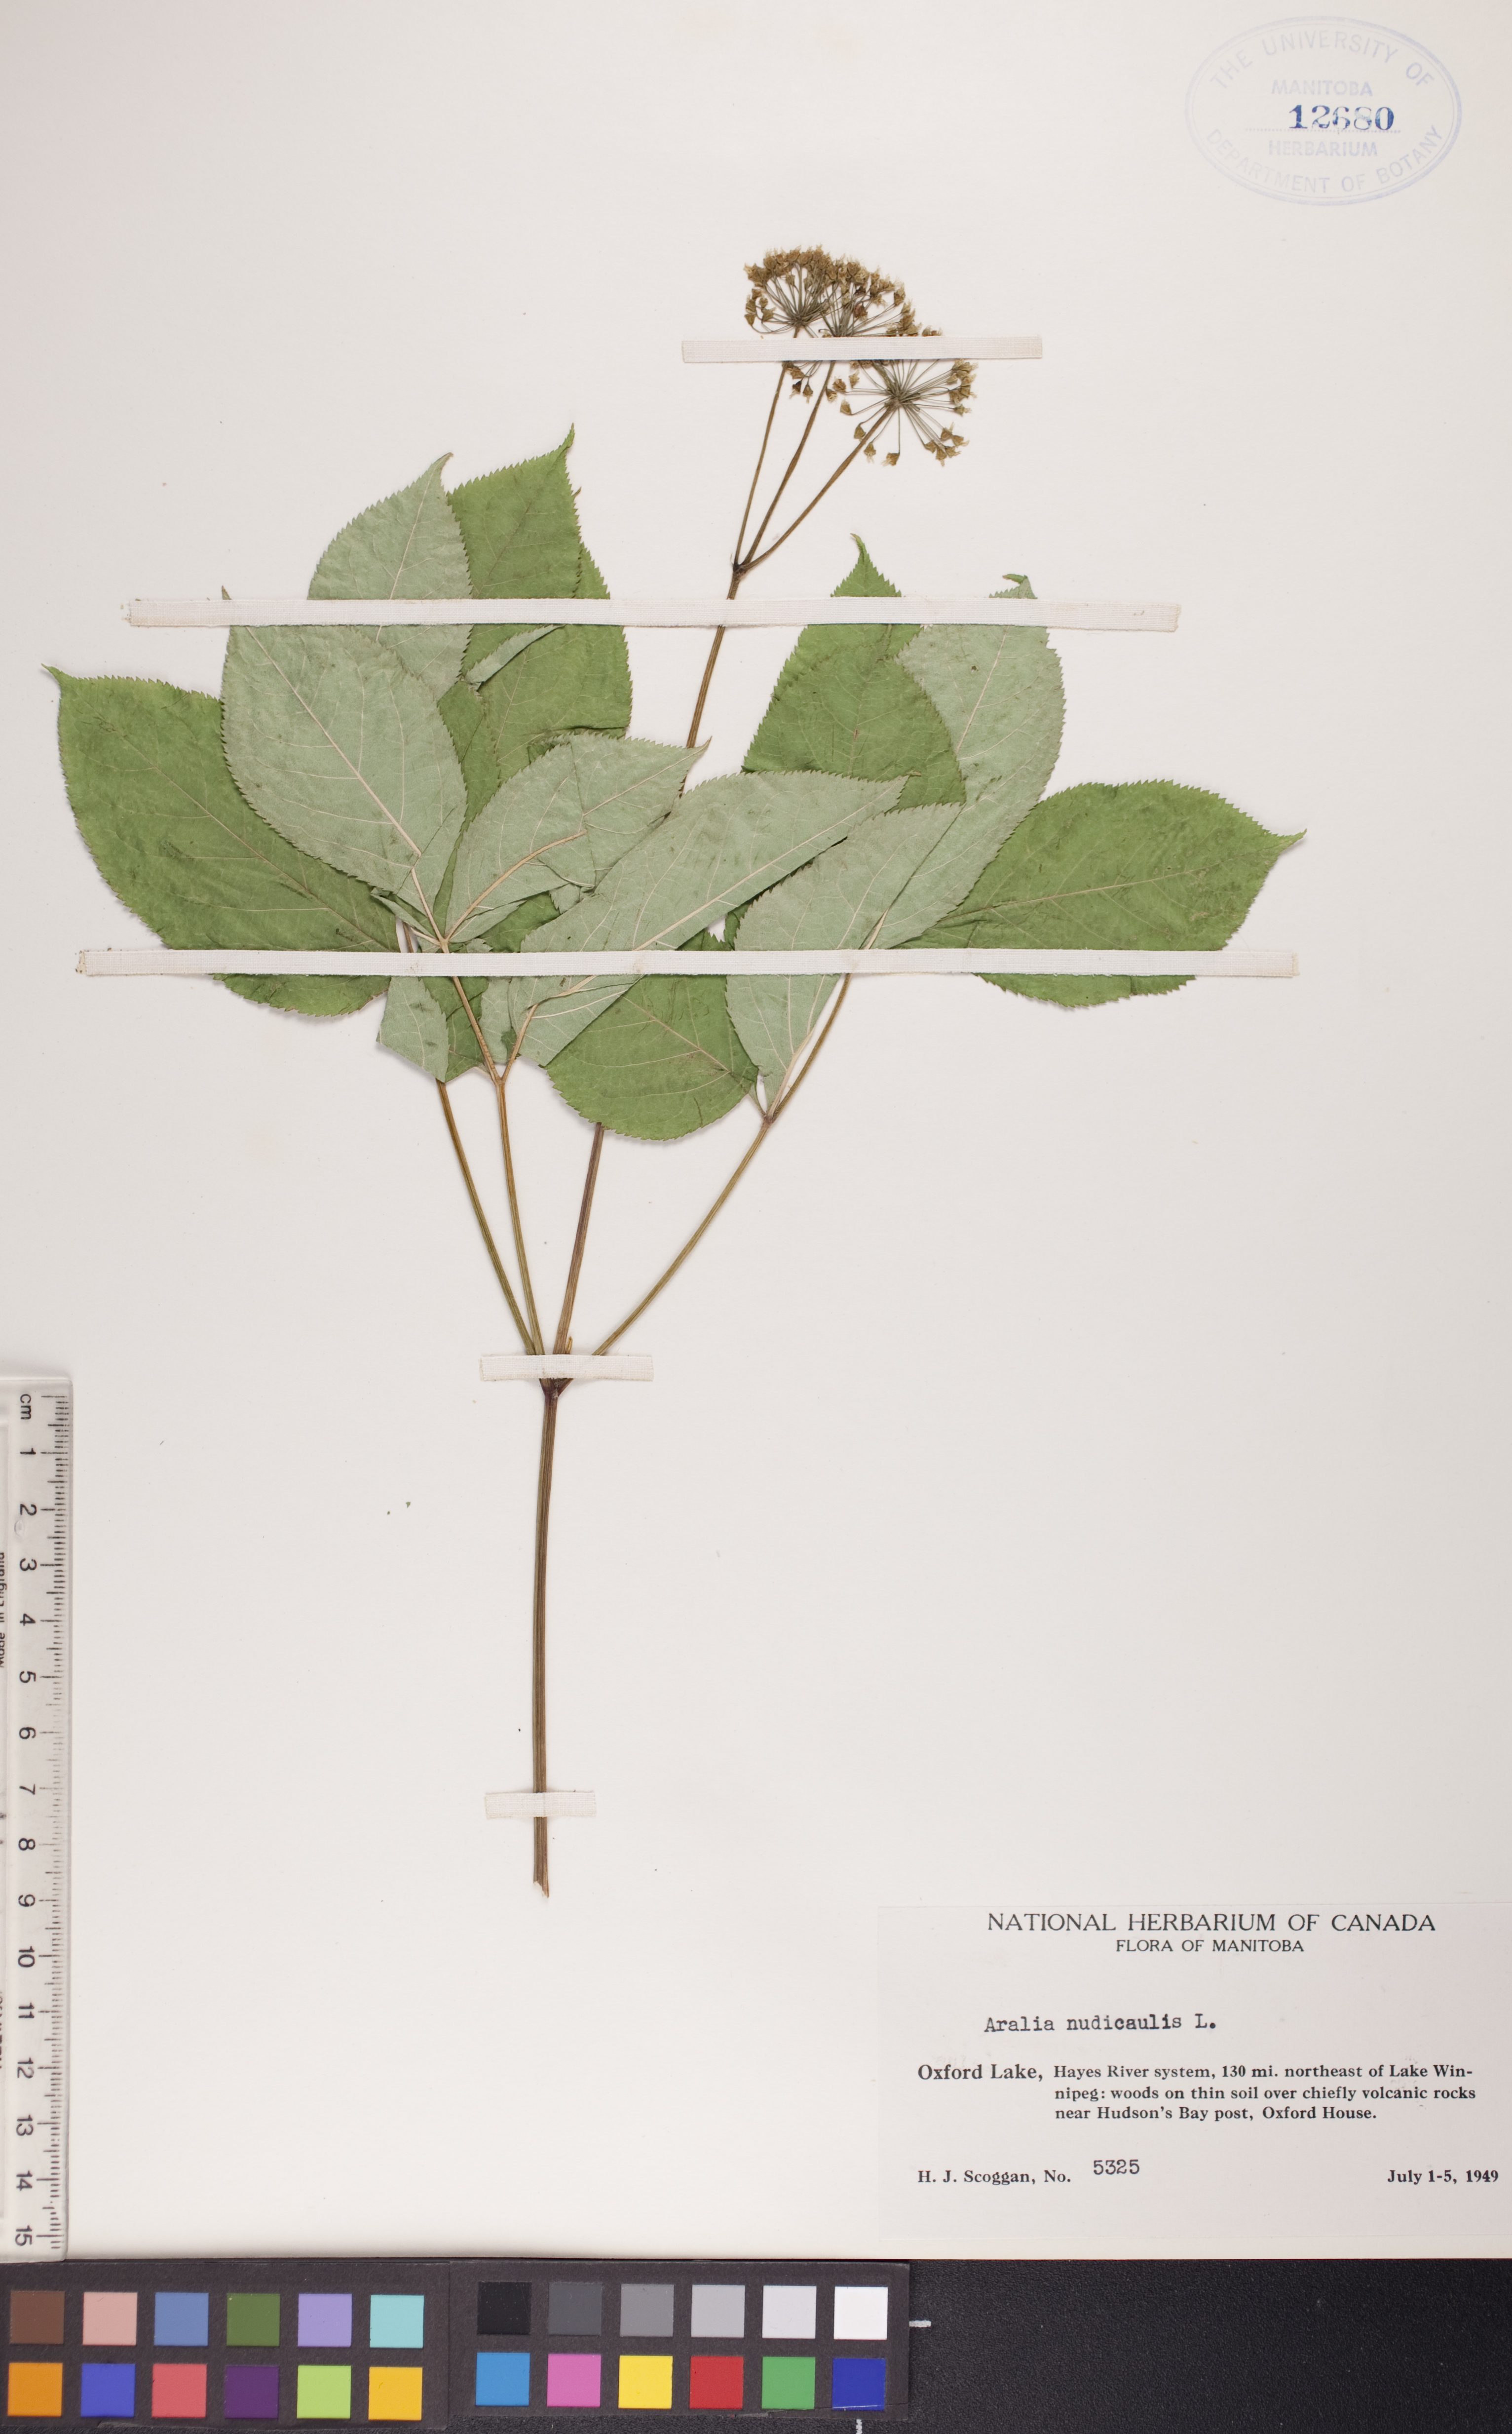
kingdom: Plantae
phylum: Tracheophyta
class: Magnoliopsida
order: Apiales
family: Araliaceae
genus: Aralia
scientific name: Aralia nudicaulis
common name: Wild sarsaparilla
